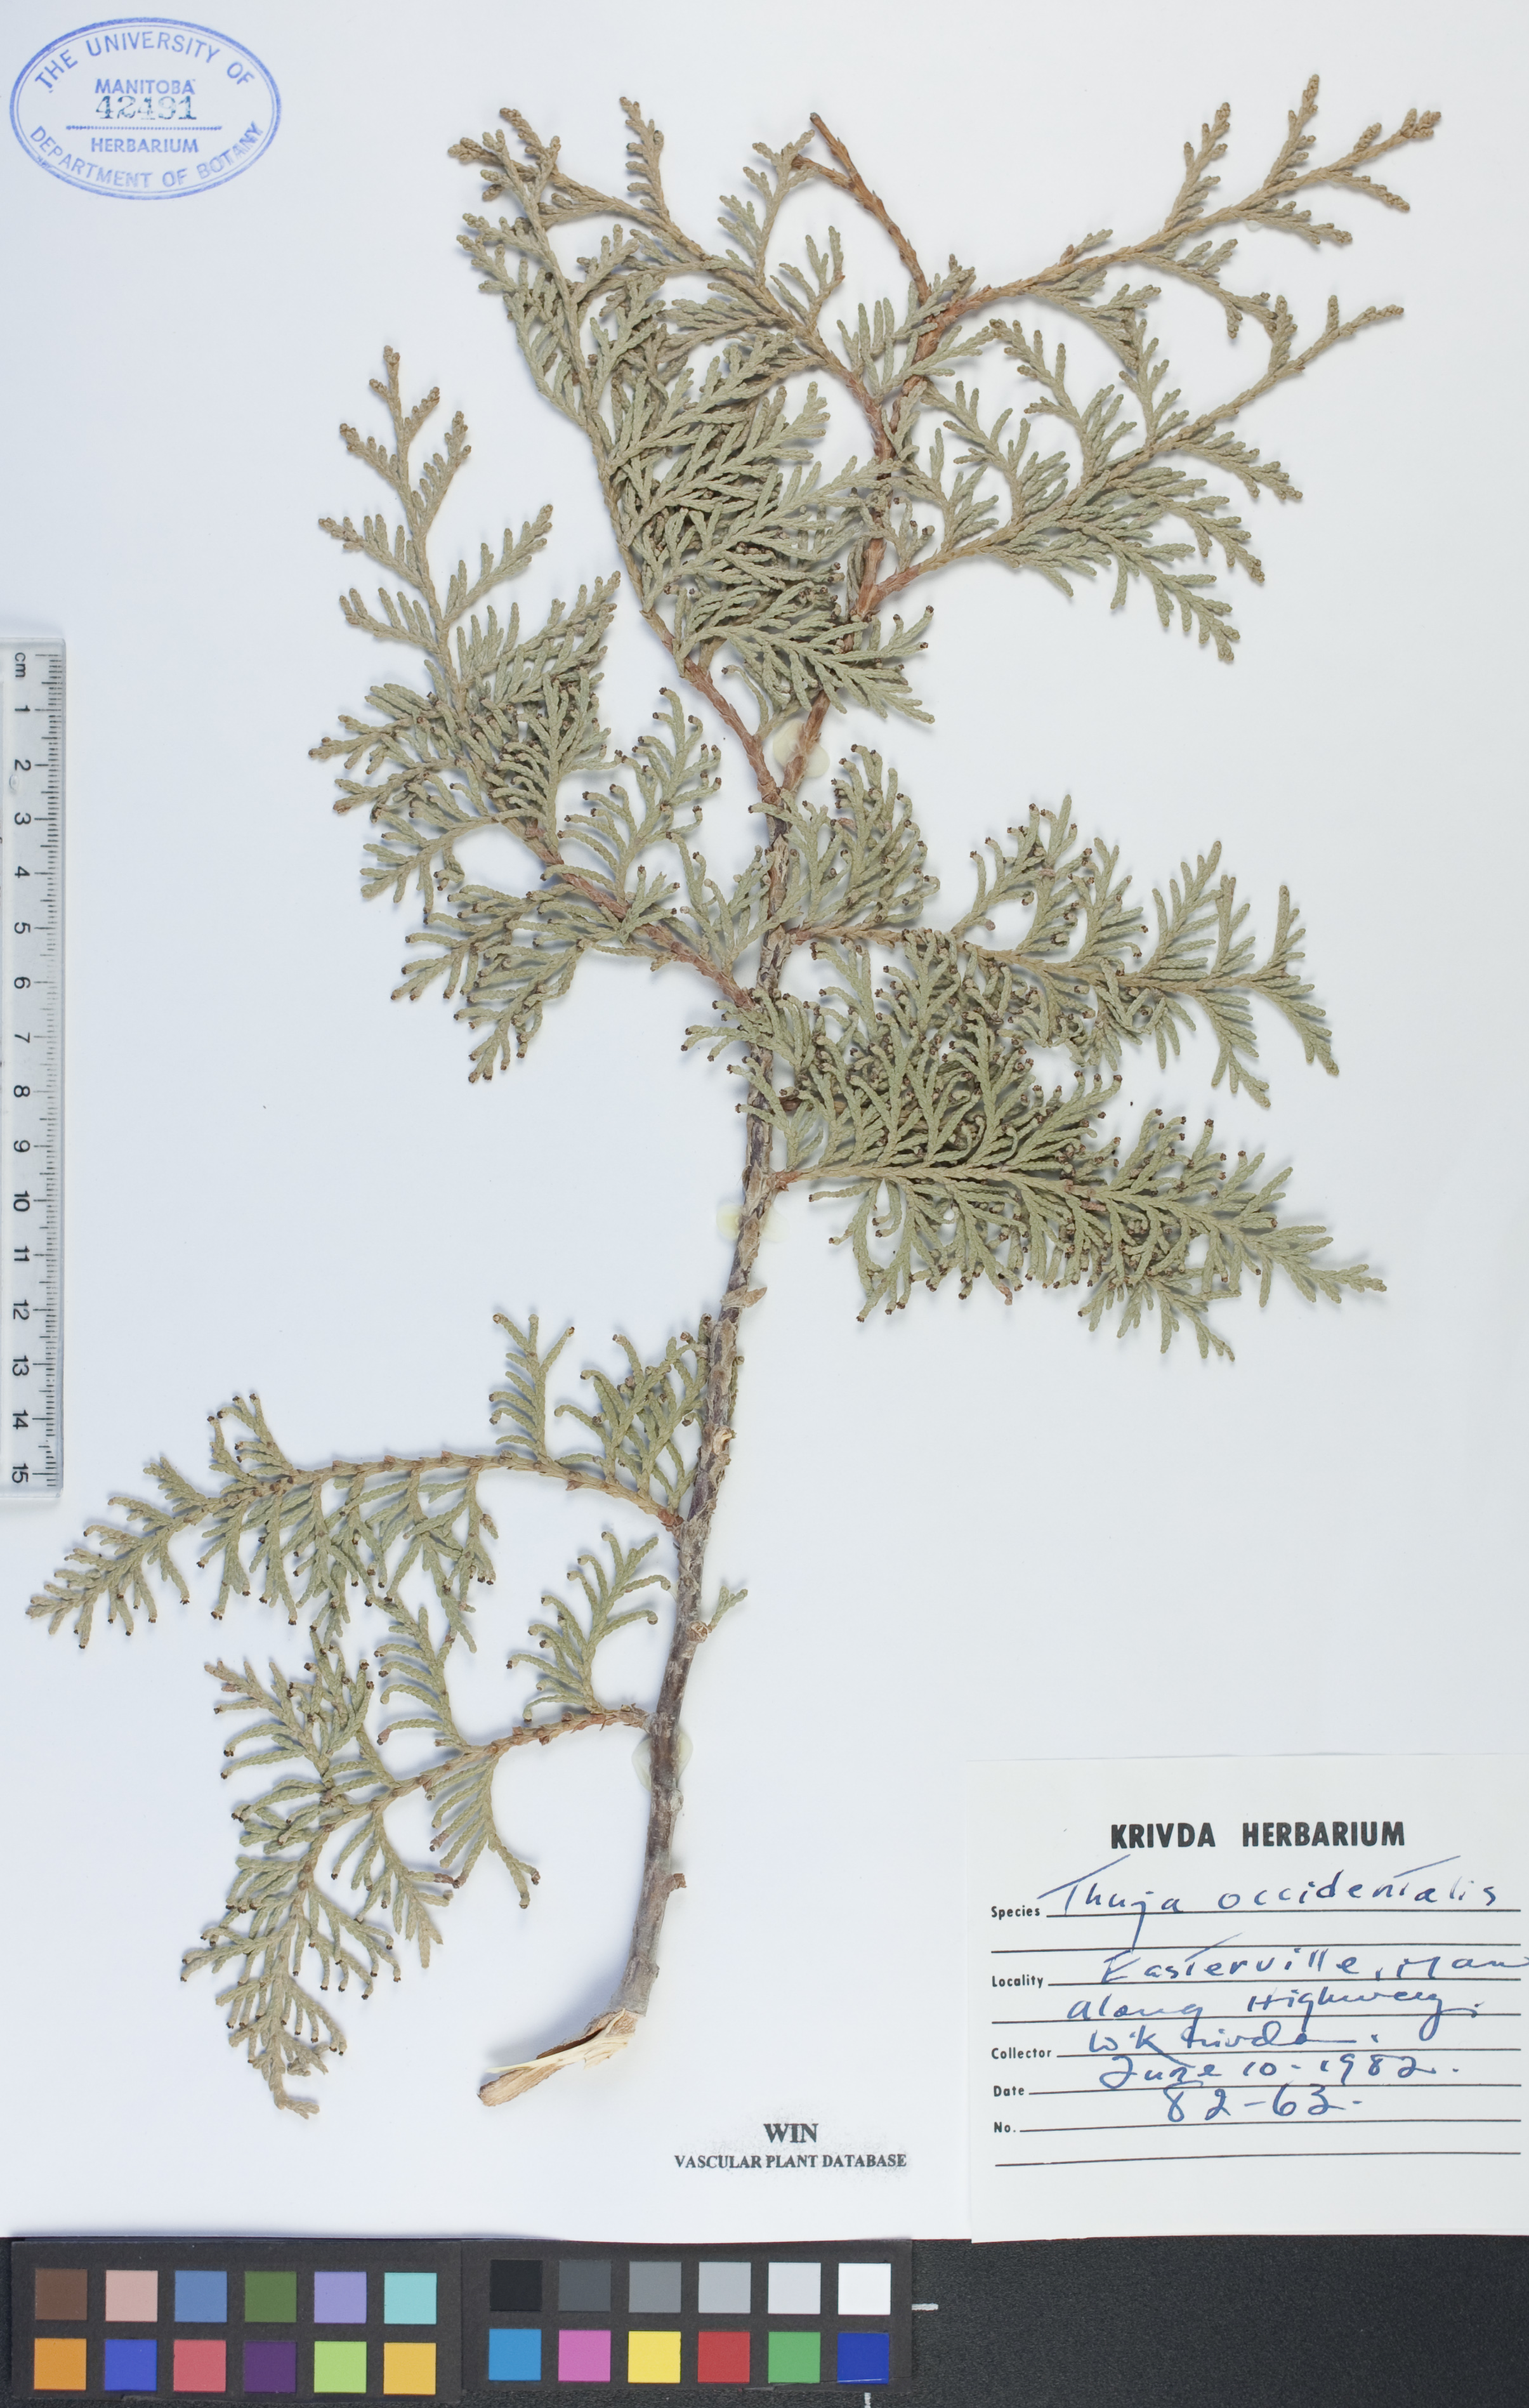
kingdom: Plantae
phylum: Tracheophyta
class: Pinopsida
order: Pinales
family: Cupressaceae
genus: Thuja
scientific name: Thuja occidentalis
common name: Northern white-cedar
